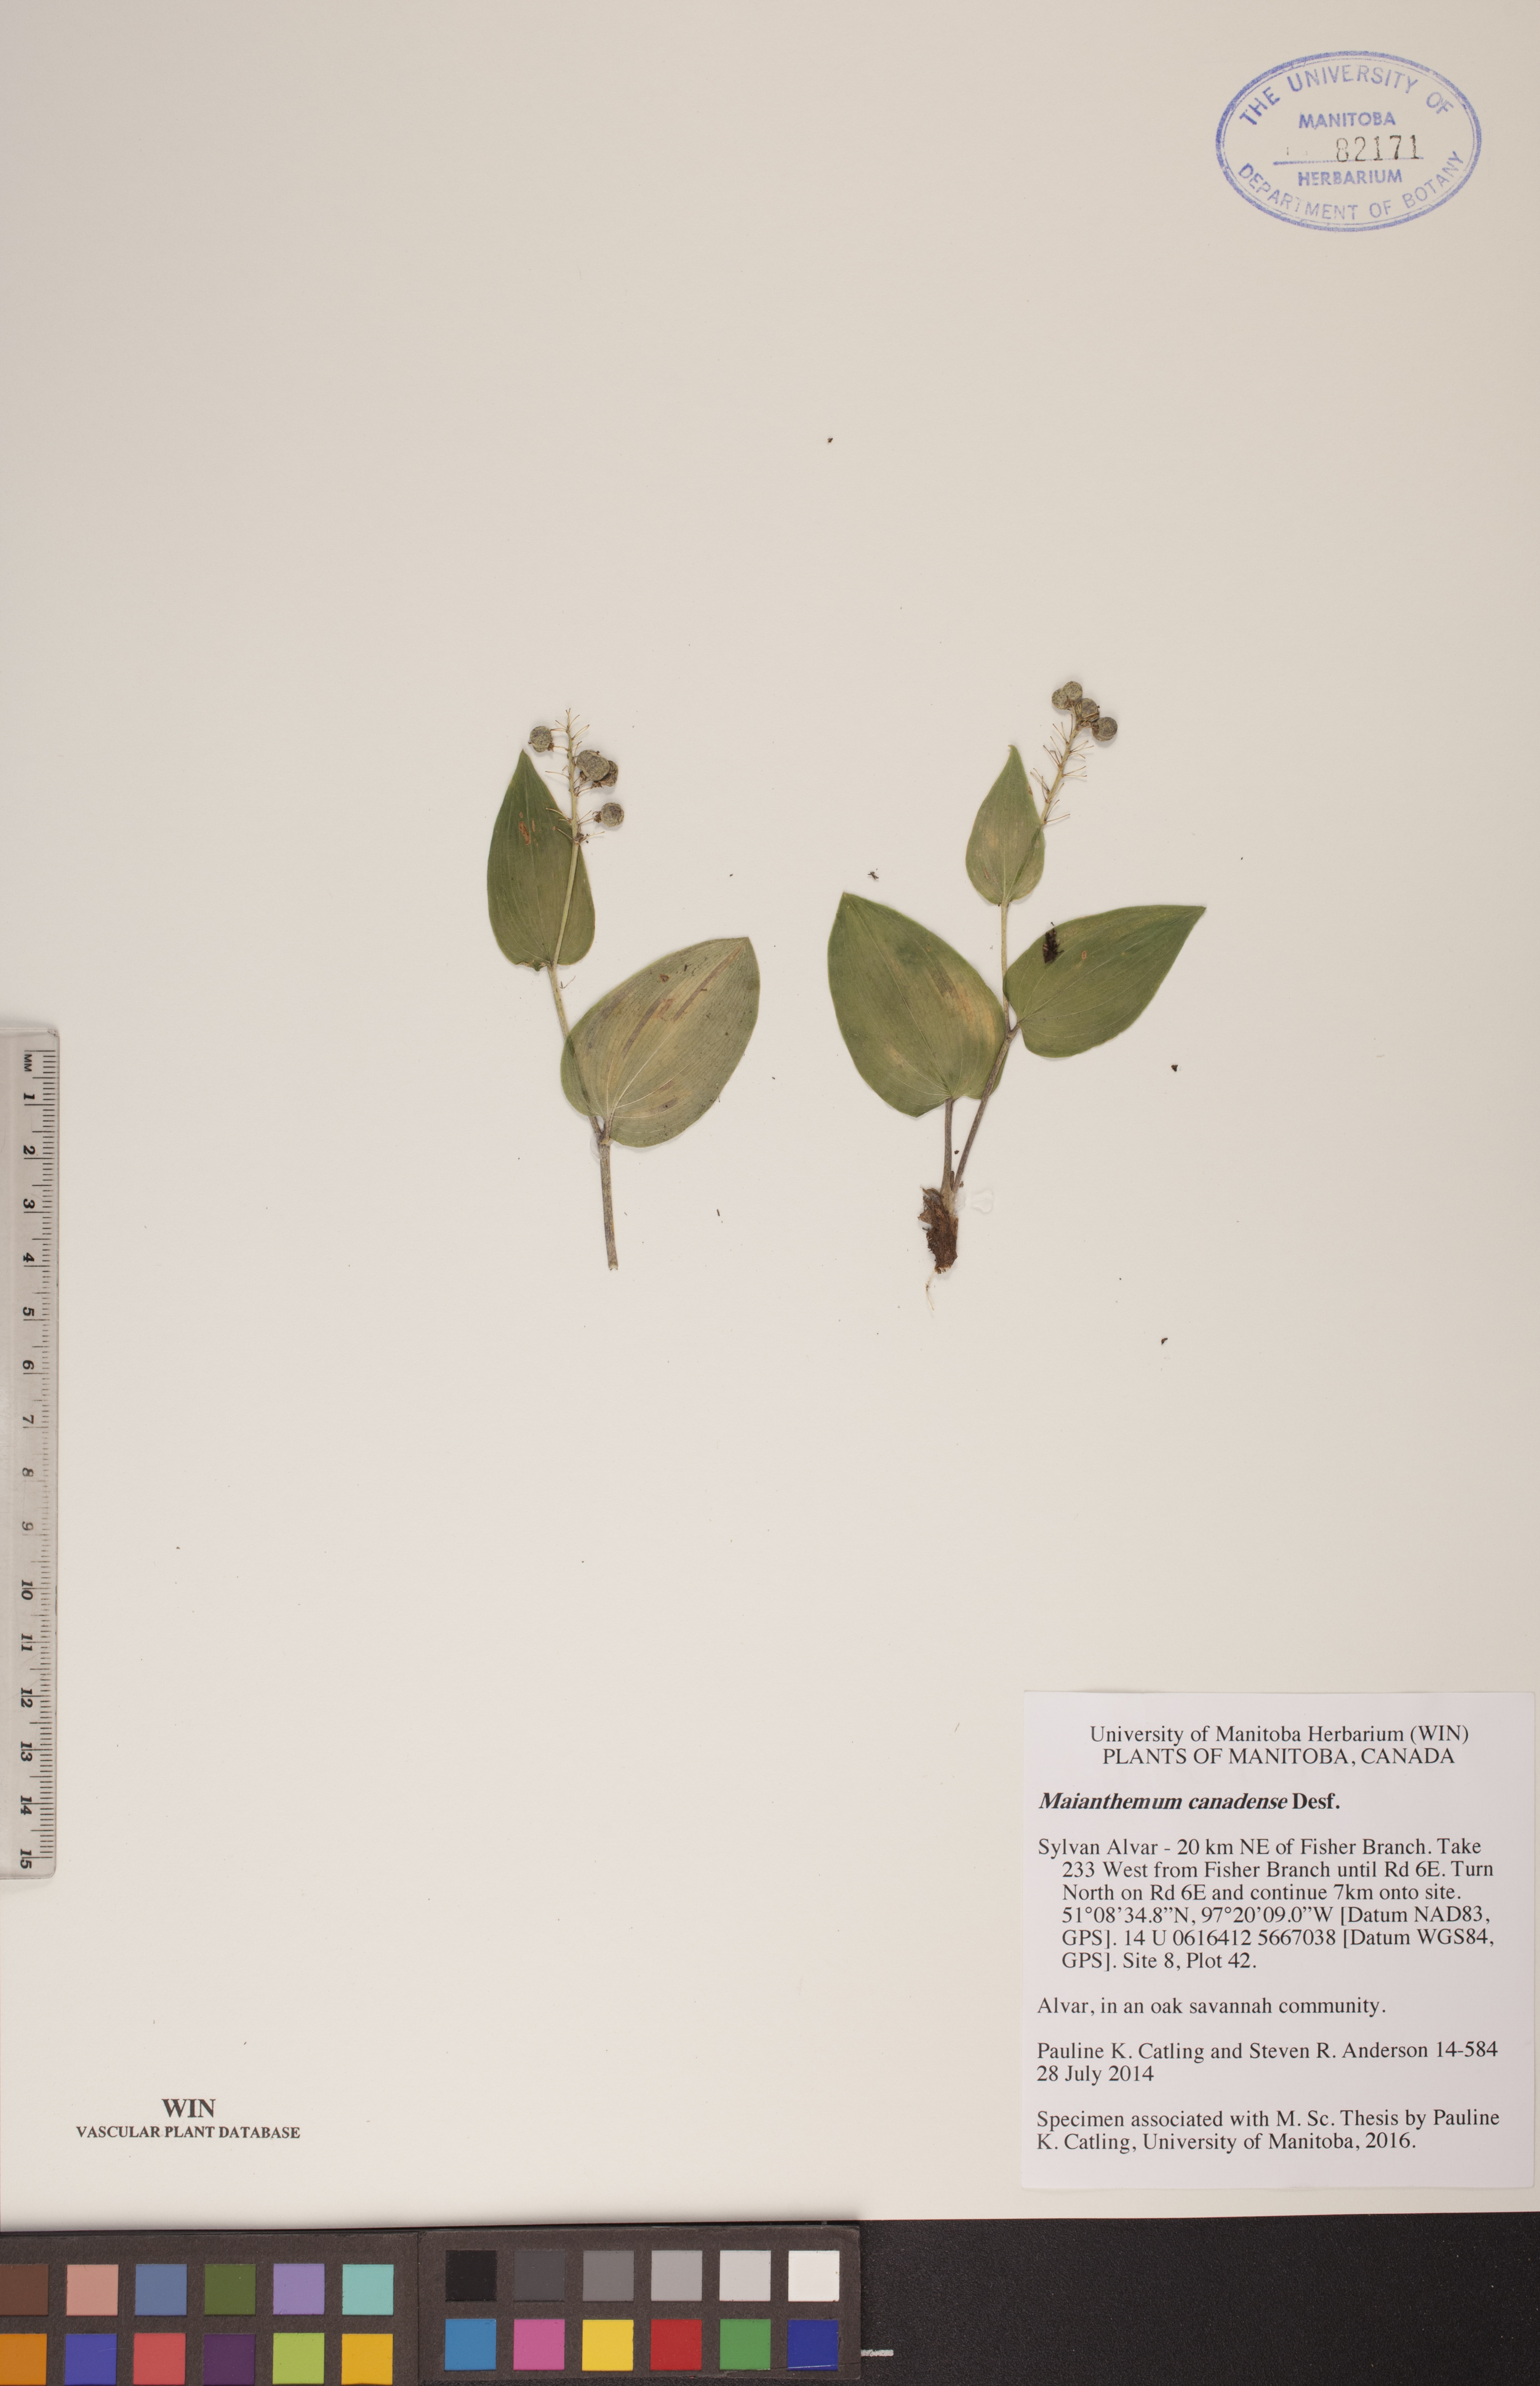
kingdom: Plantae
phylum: Tracheophyta
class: Liliopsida
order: Asparagales
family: Asparagaceae
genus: Maianthemum
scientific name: Maianthemum canadense
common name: False lily-of-the-valley
